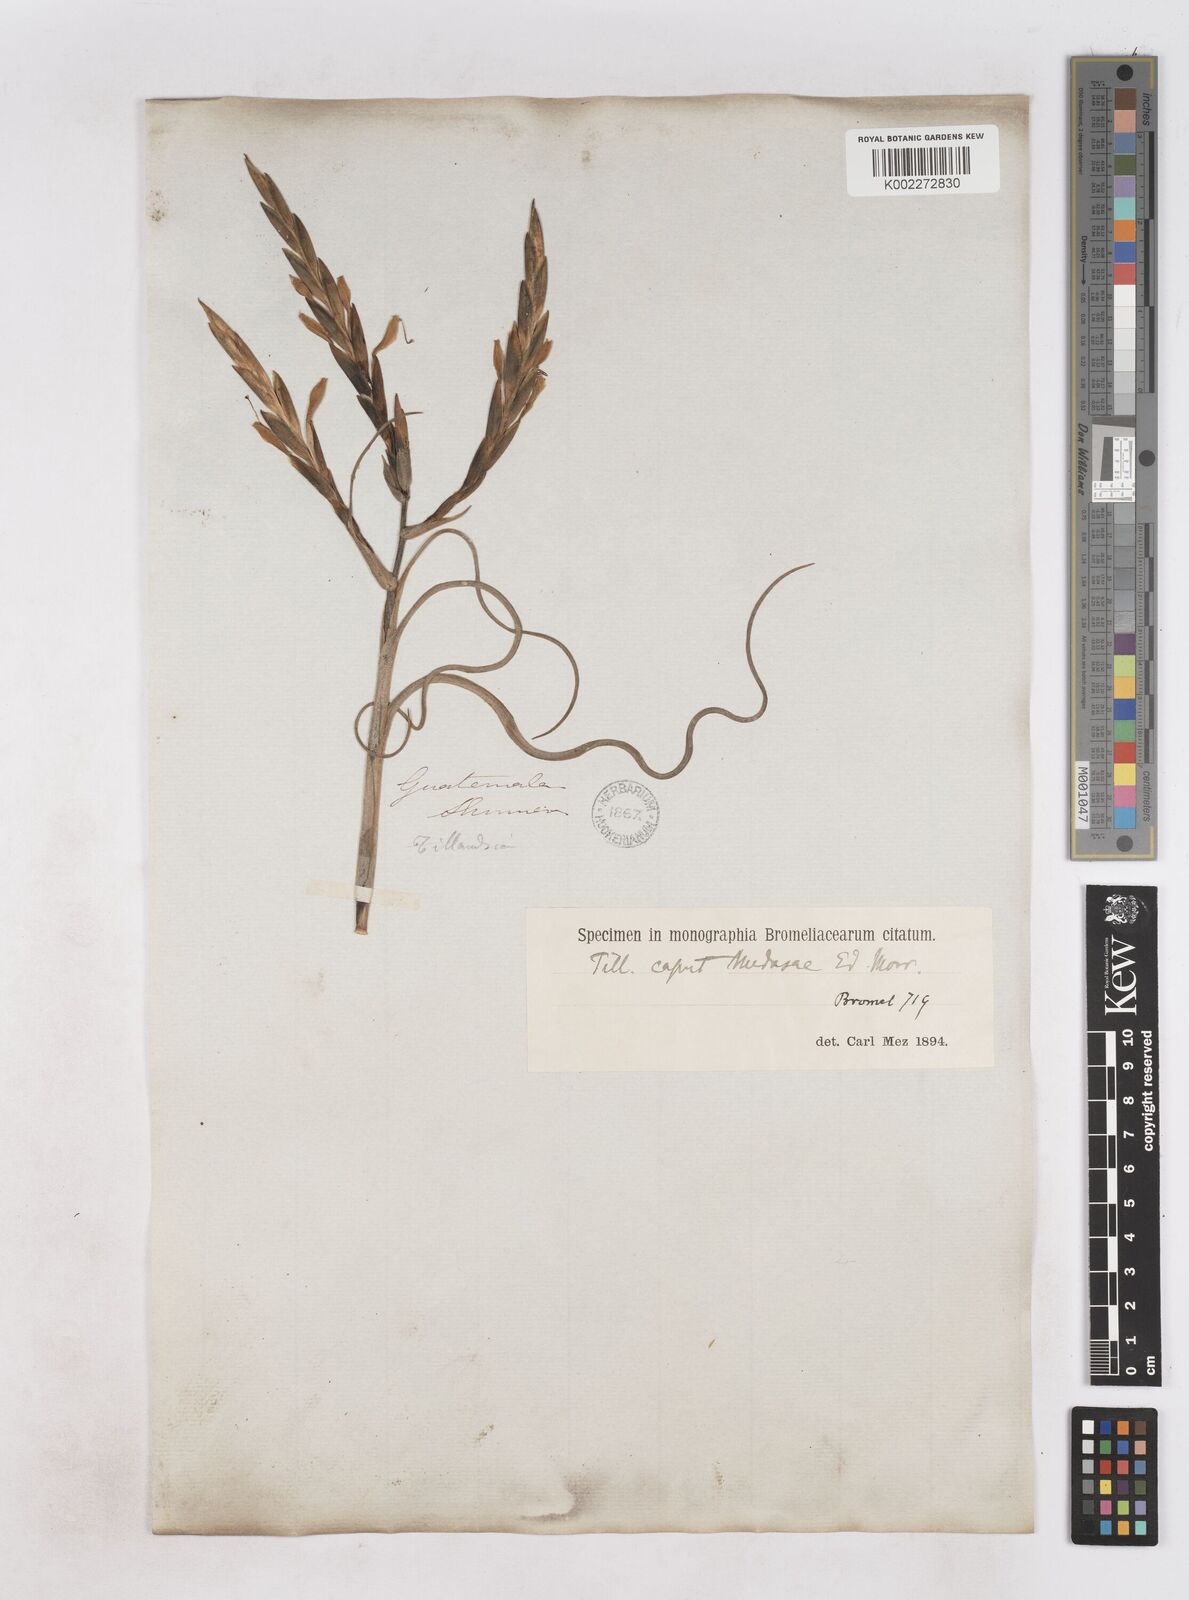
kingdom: Plantae
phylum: Tracheophyta
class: Liliopsida
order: Poales
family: Bromeliaceae
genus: Tillandsia
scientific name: Tillandsia caput-medusae
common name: Octopus plant
